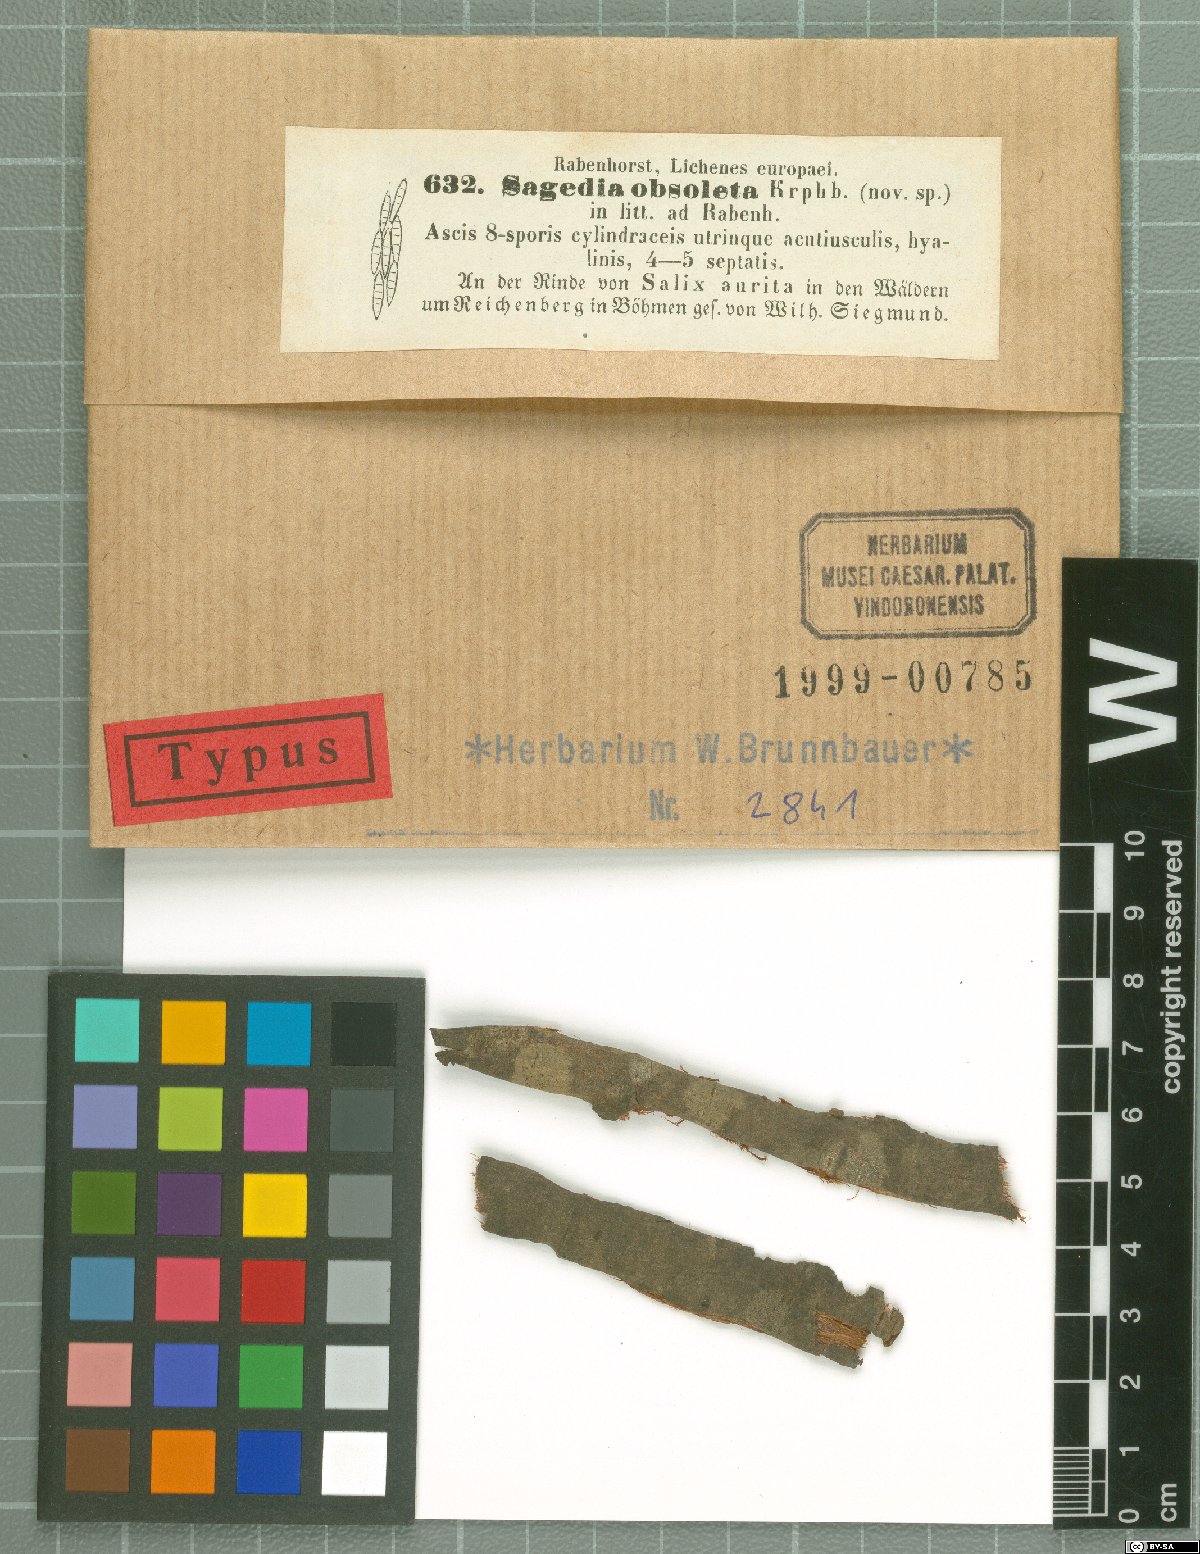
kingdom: Fungi
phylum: Ascomycota
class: Lecanoromycetes
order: Ostropales
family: Porinaceae
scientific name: Porinaceae
